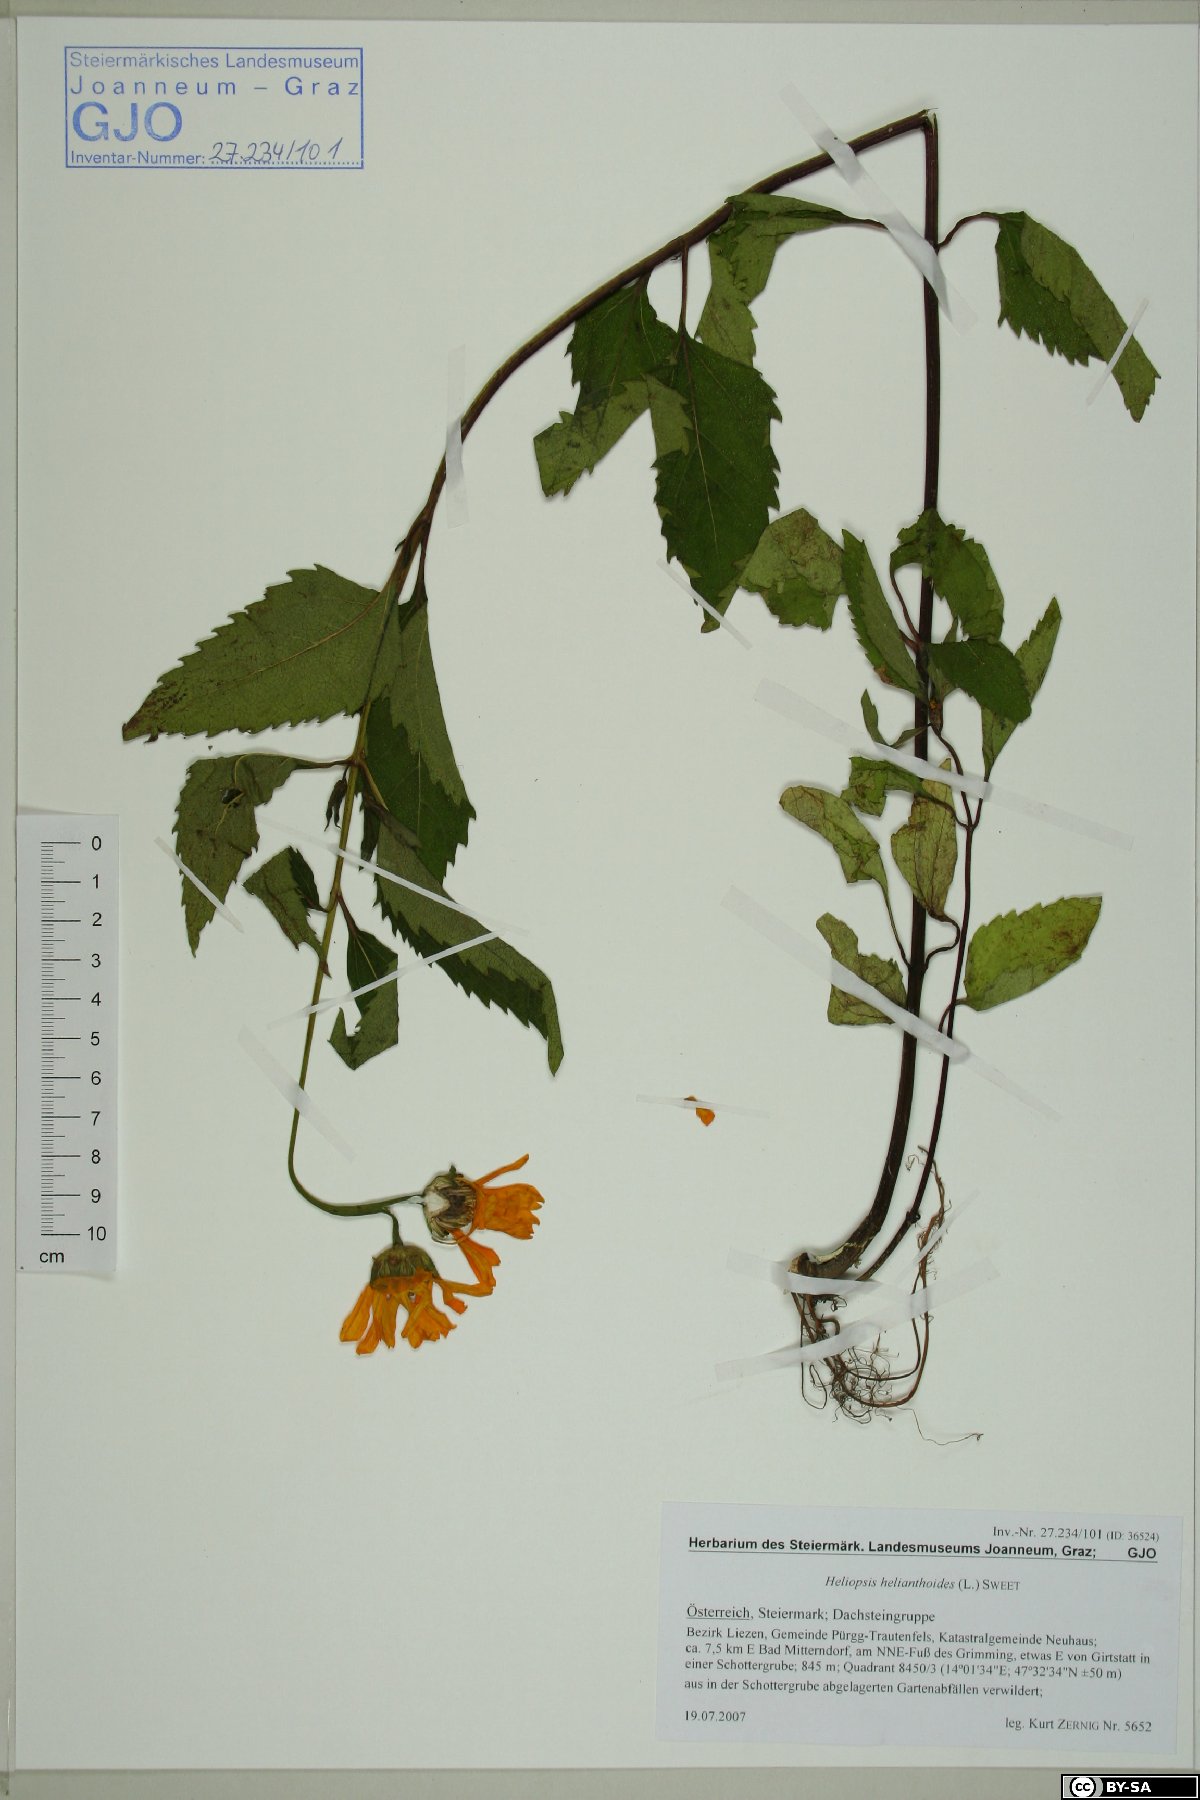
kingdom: Plantae
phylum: Tracheophyta
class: Magnoliopsida
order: Asterales
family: Asteraceae
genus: Heliopsis
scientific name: Heliopsis helianthoides
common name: False sunflower
